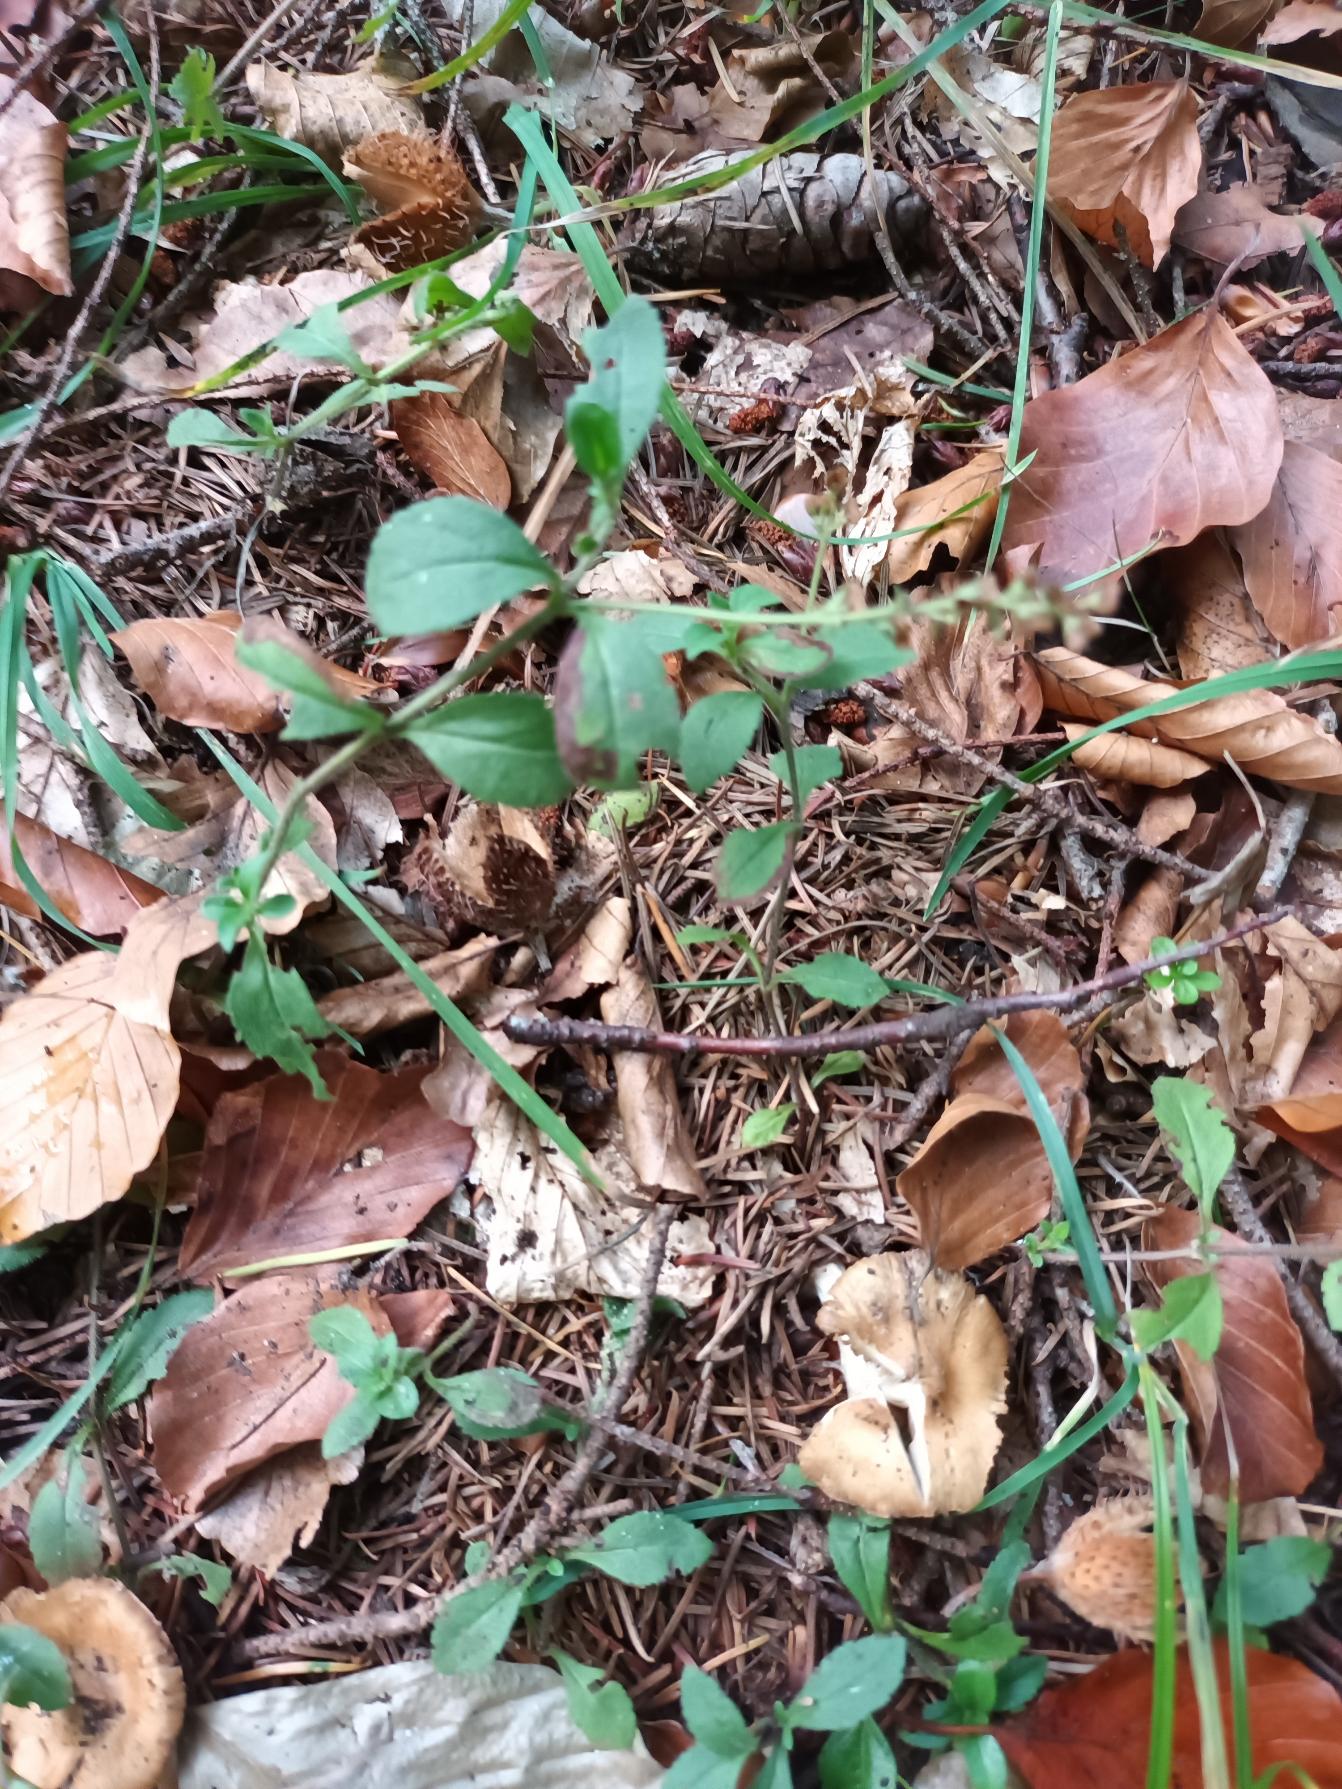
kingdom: Plantae
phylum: Tracheophyta
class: Magnoliopsida
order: Lamiales
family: Plantaginaceae
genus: Veronica
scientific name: Veronica officinalis
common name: Læge-ærenpris
